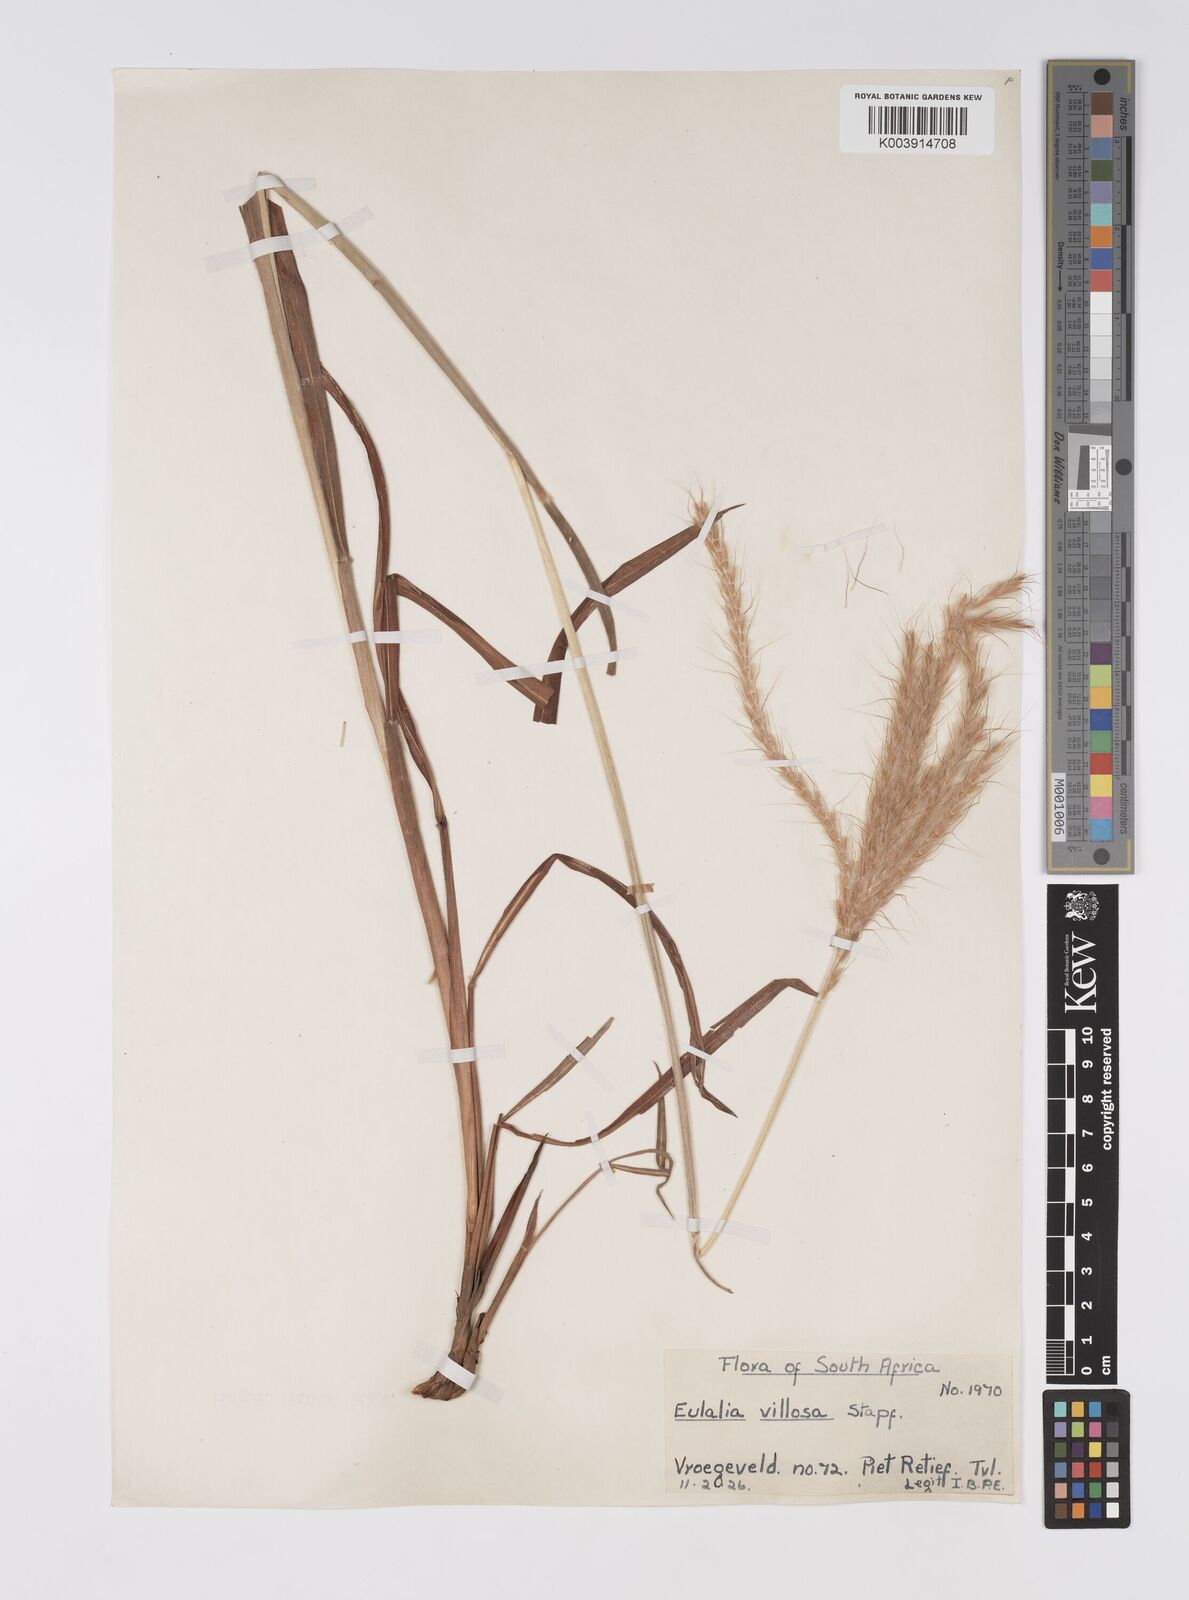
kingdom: Plantae
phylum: Tracheophyta
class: Liliopsida
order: Poales
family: Poaceae
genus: Eulalia
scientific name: Eulalia villosa
